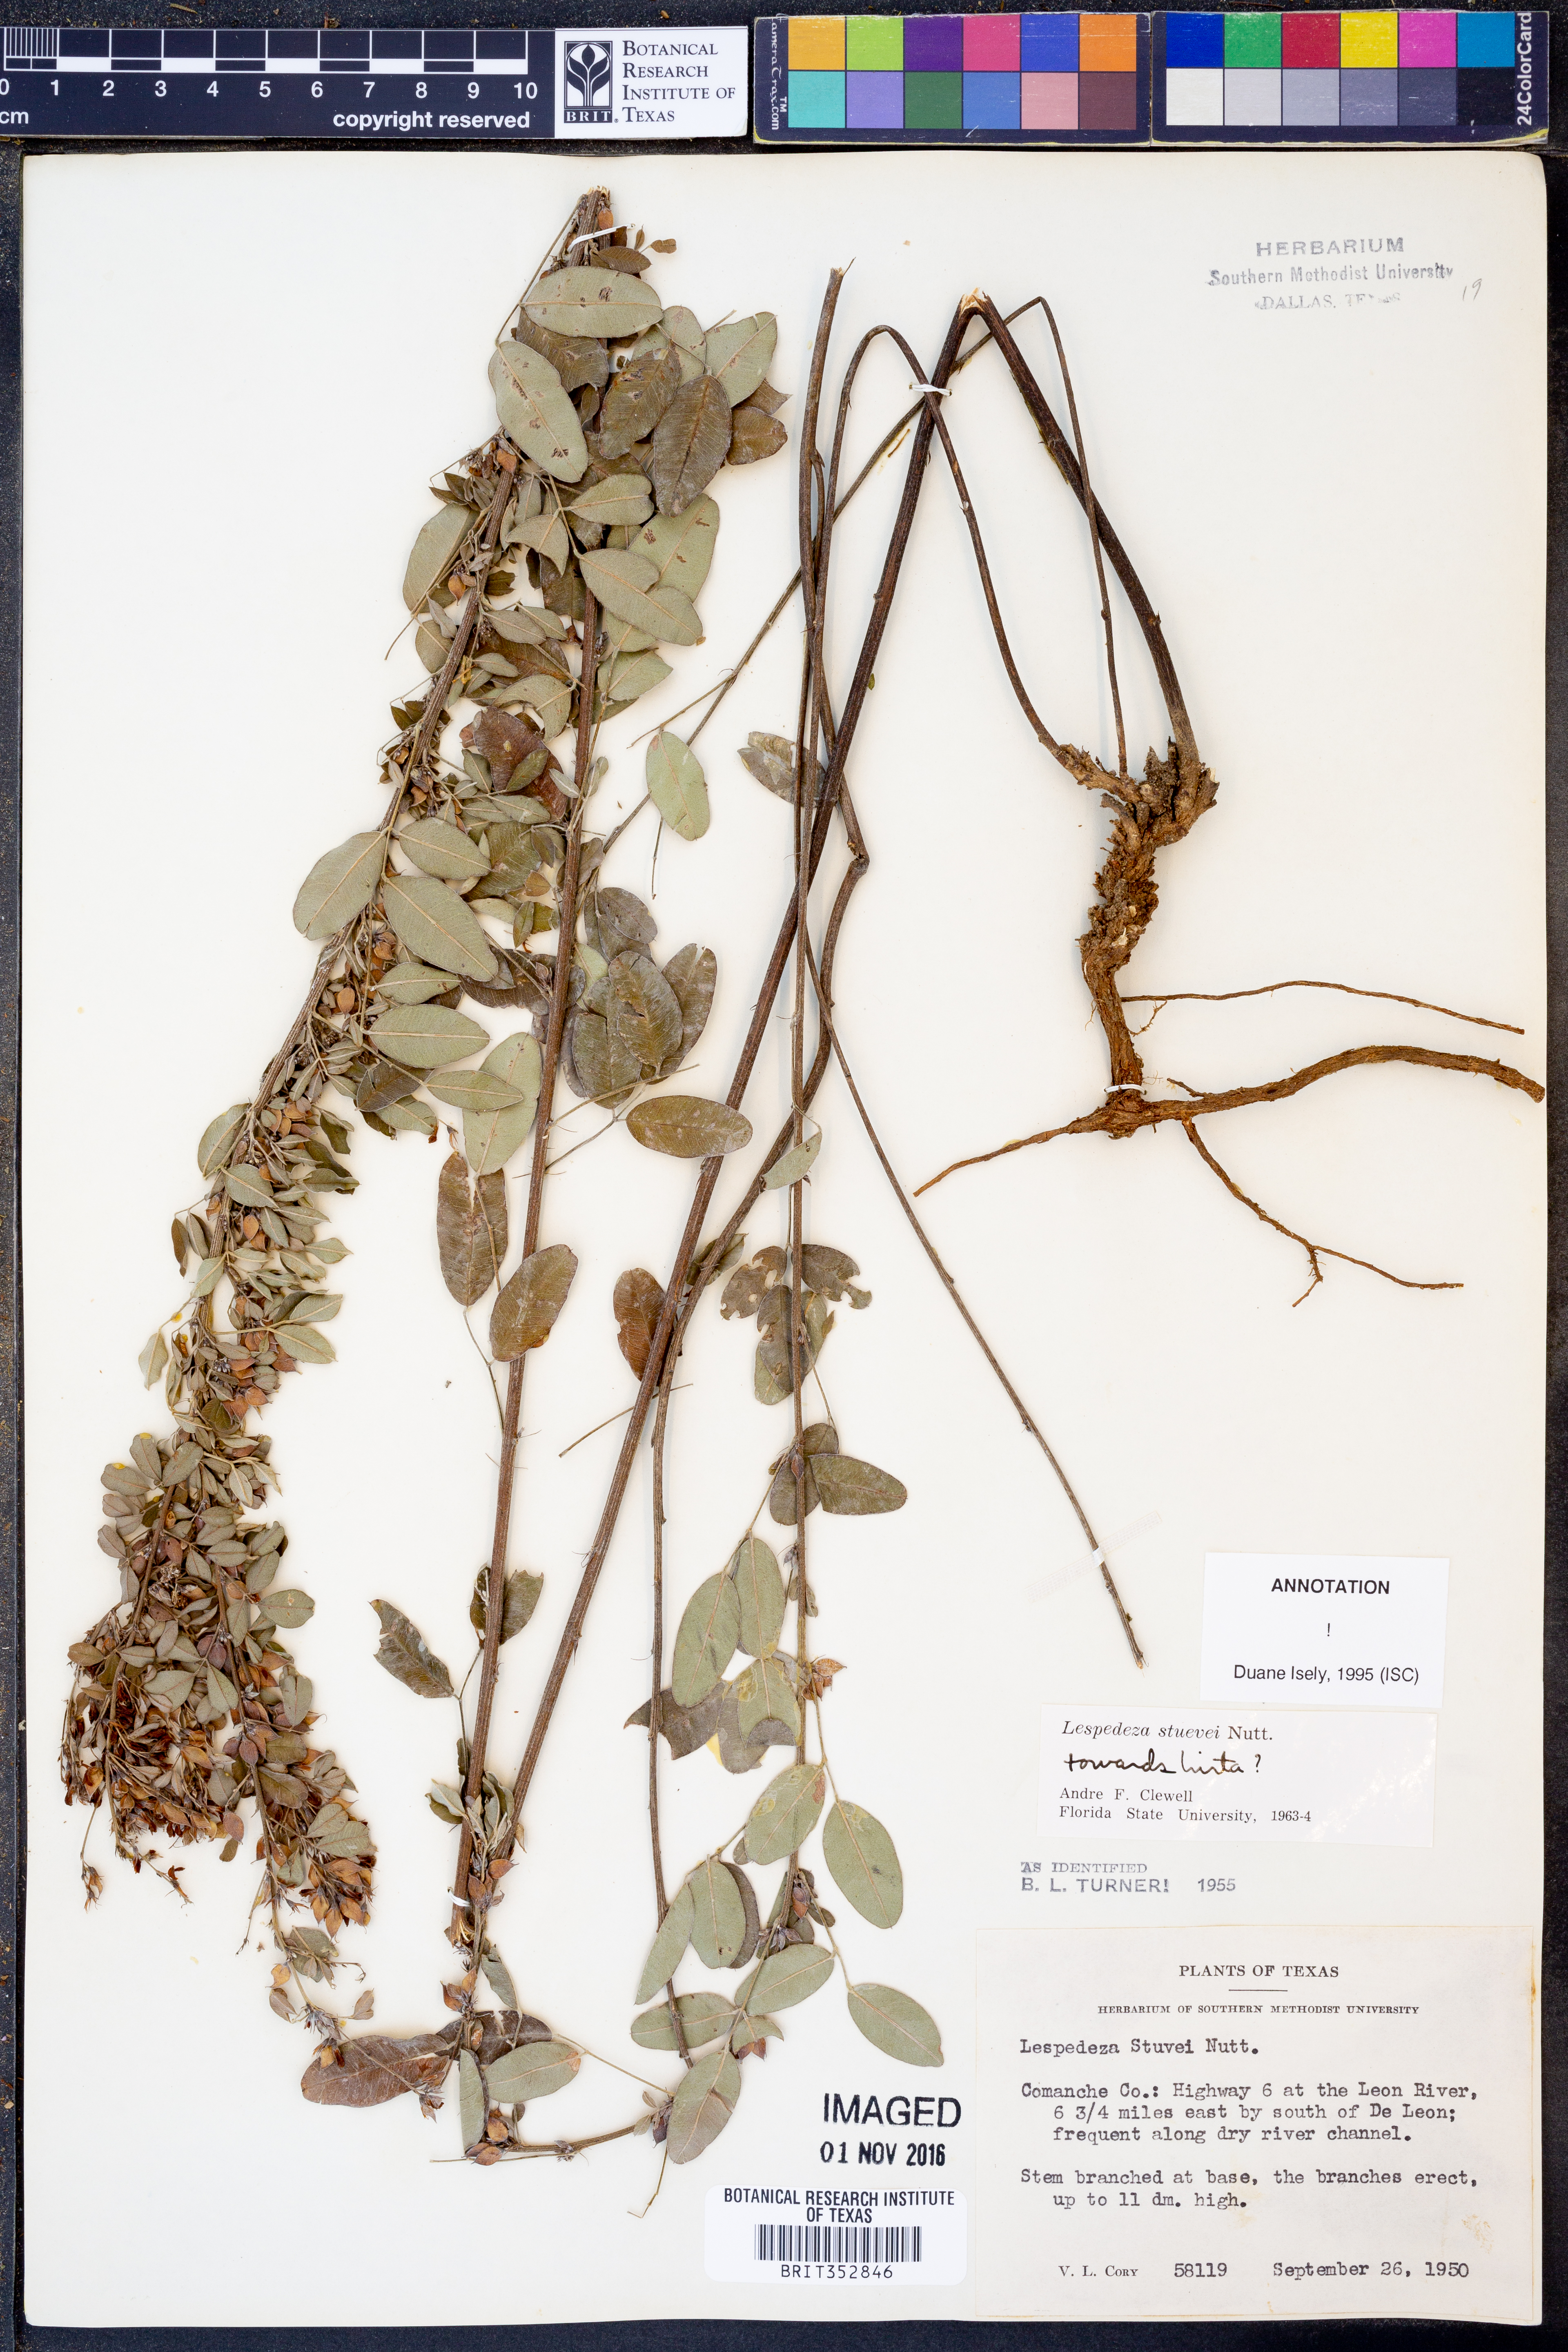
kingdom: Plantae
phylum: Tracheophyta
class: Magnoliopsida
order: Fabales
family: Fabaceae
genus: Lespedeza
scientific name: Lespedeza stuevei
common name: Tall bush-clover
